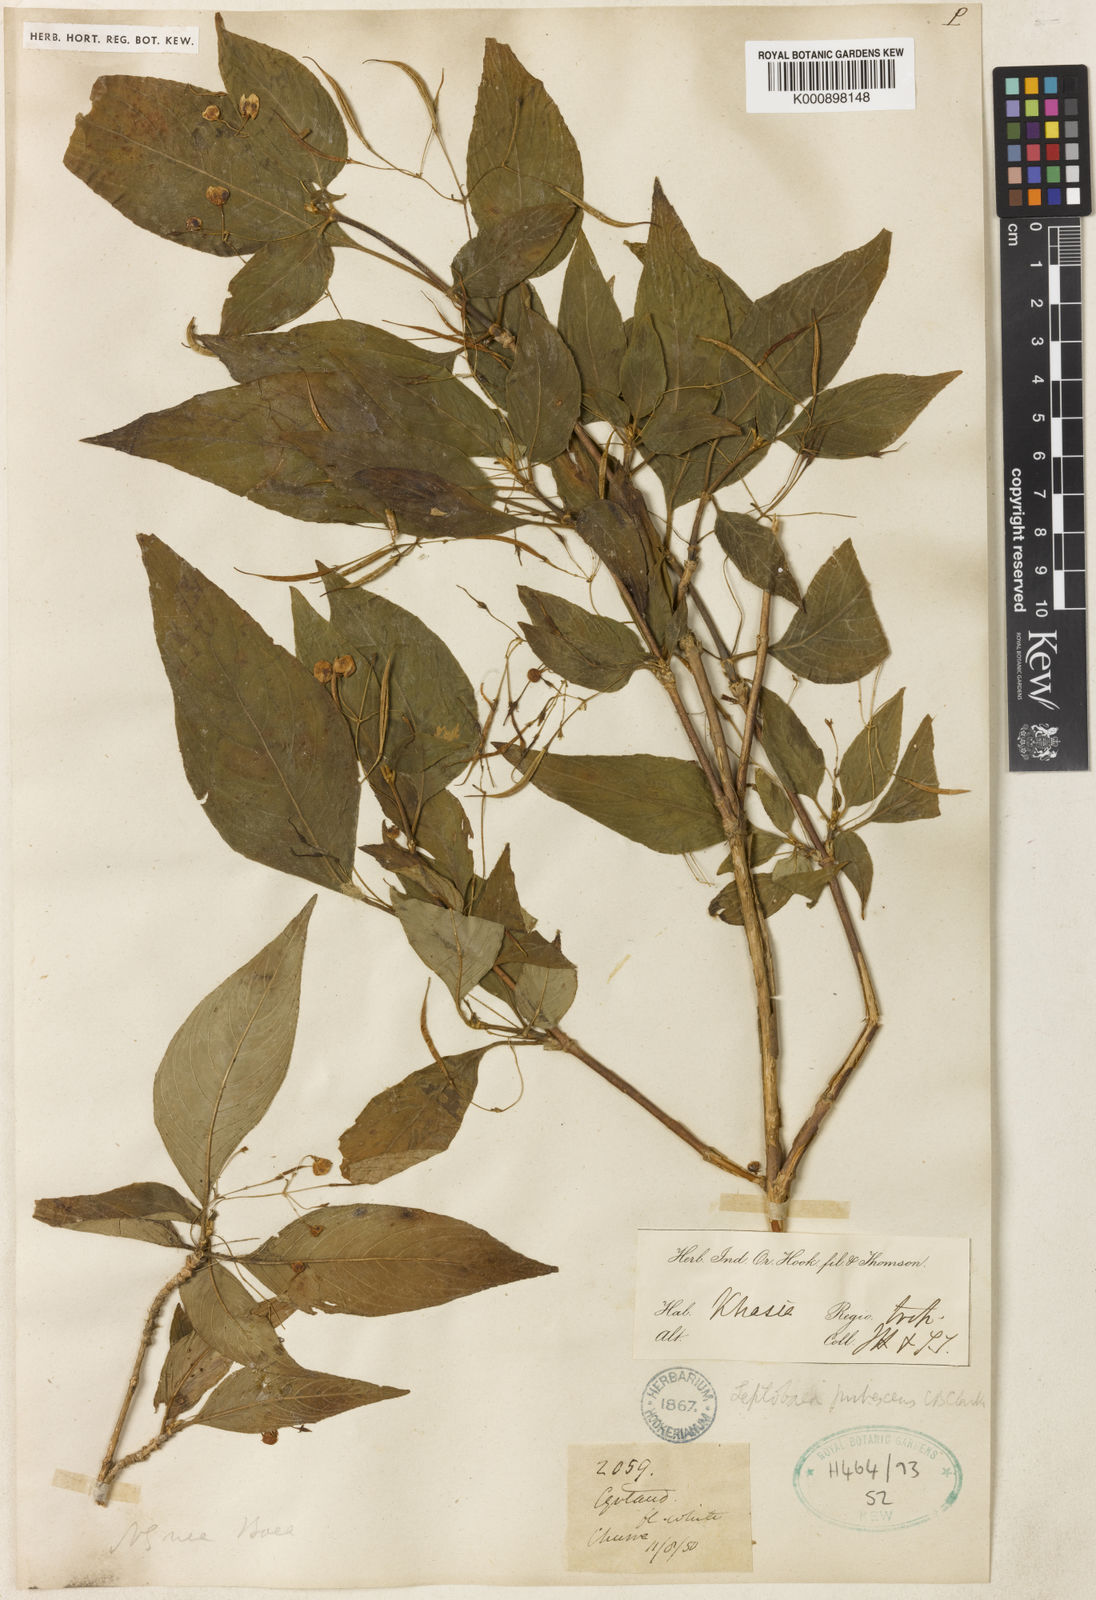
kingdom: Plantae
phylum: Tracheophyta
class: Magnoliopsida
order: Lamiales
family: Gesneriaceae
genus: Leptoboea
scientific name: Leptoboea multiflora
